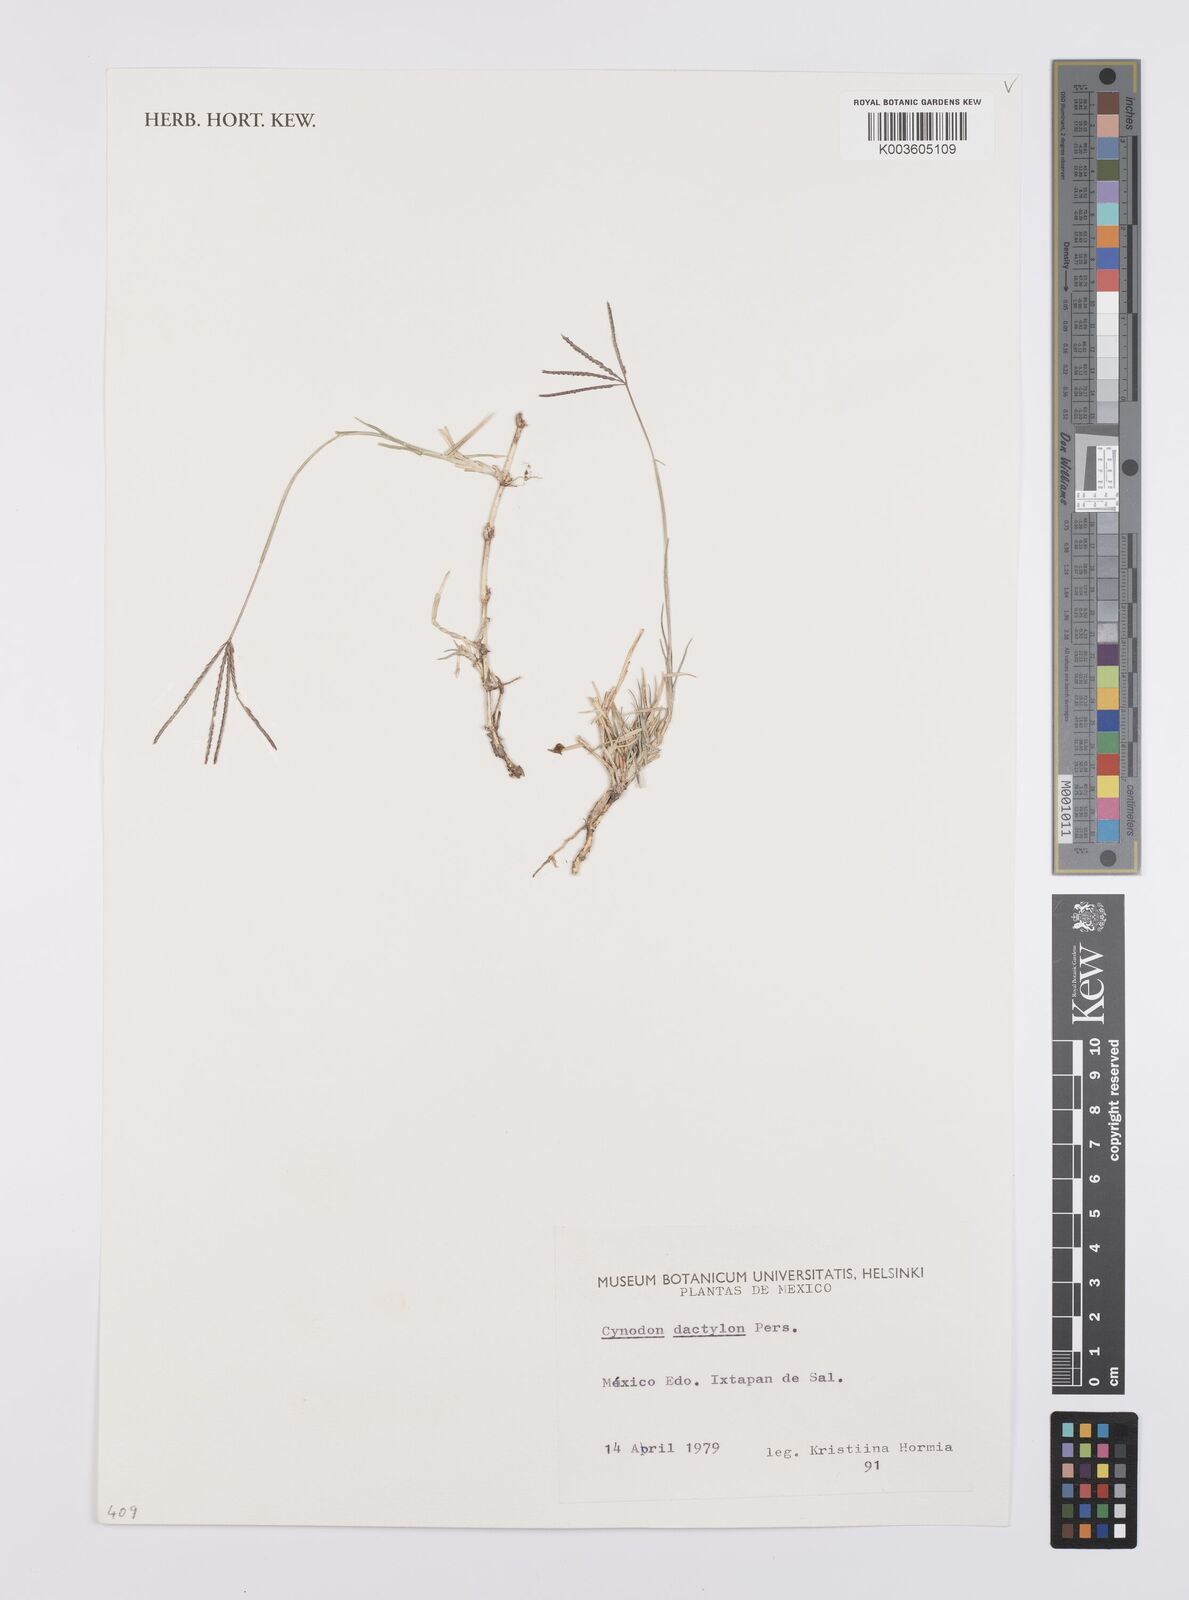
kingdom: Plantae
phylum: Tracheophyta
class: Liliopsida
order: Poales
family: Poaceae
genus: Cynodon
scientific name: Cynodon dactylon
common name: Bermuda grass
